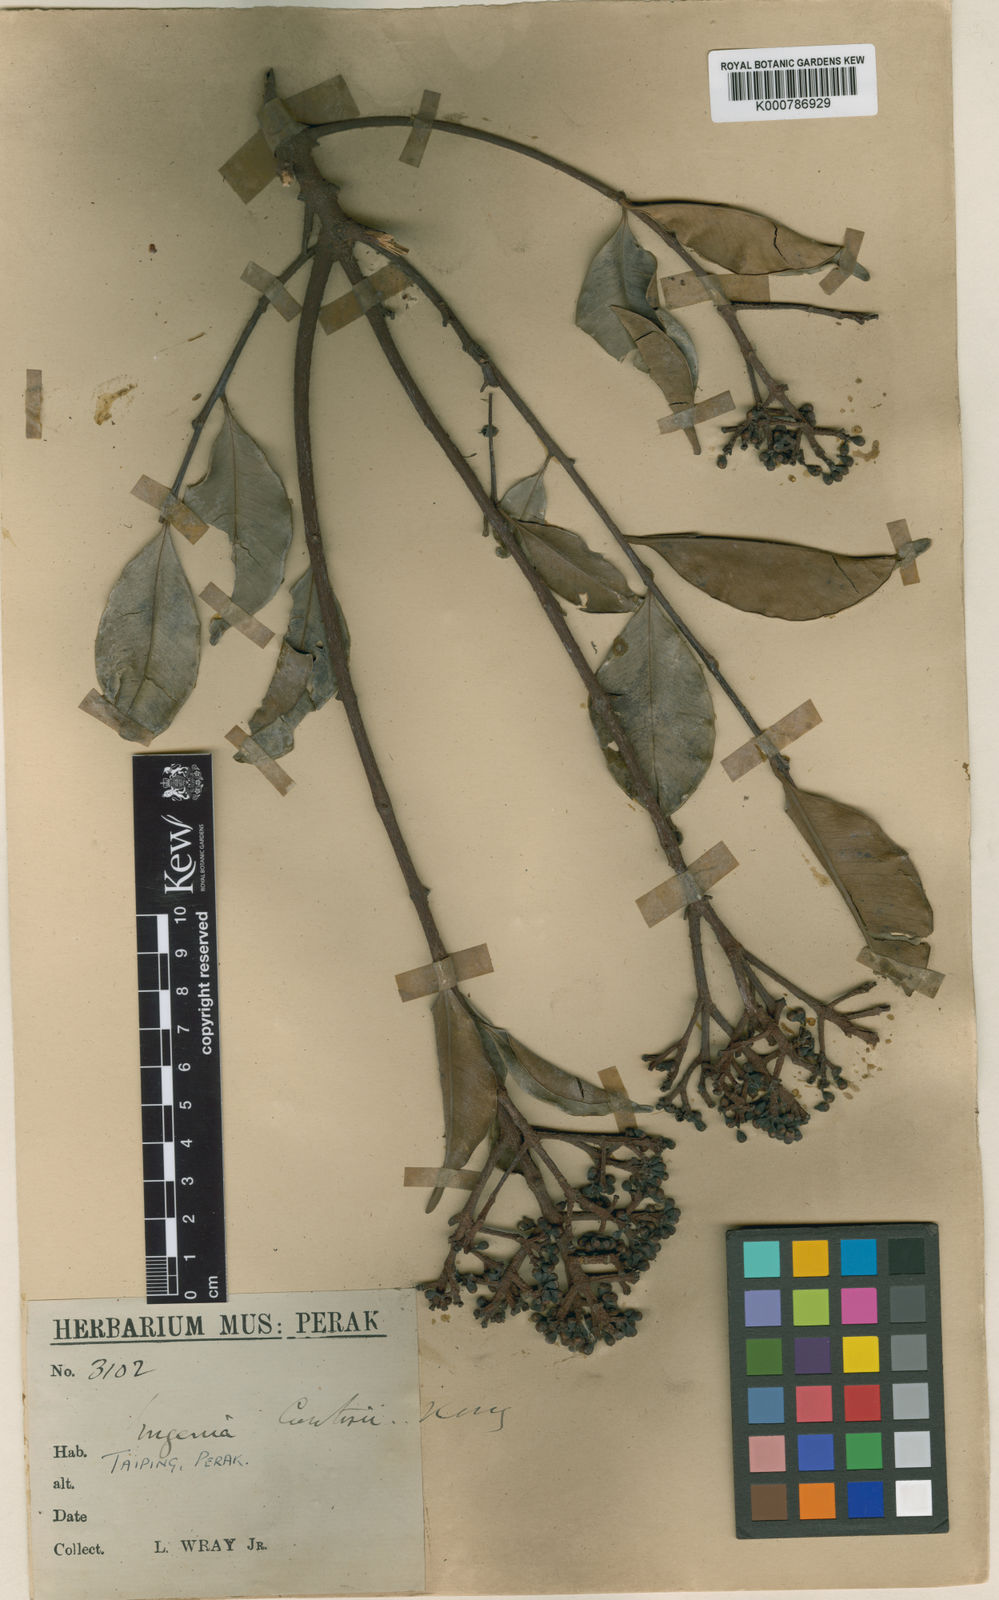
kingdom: Plantae
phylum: Tracheophyta
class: Magnoliopsida
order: Myrtales
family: Myrtaceae
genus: Syzygium
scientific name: Syzygium curtiflorum
